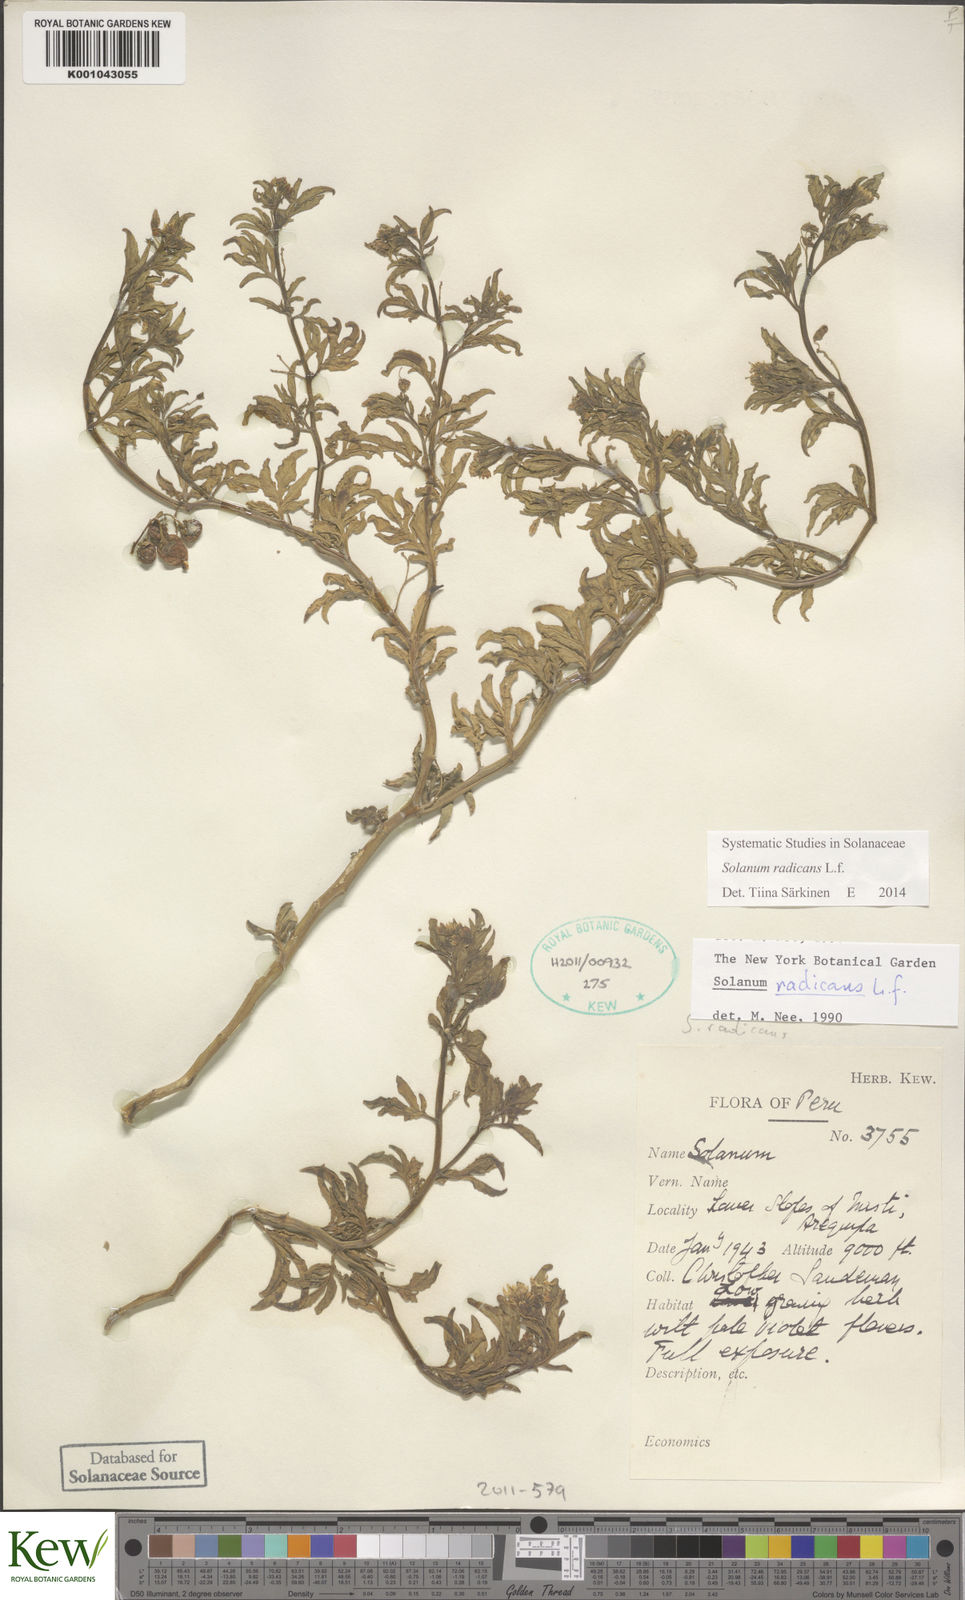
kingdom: Plantae
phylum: Tracheophyta
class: Magnoliopsida
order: Solanales
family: Solanaceae
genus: Solanum
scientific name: Solanum radicans
